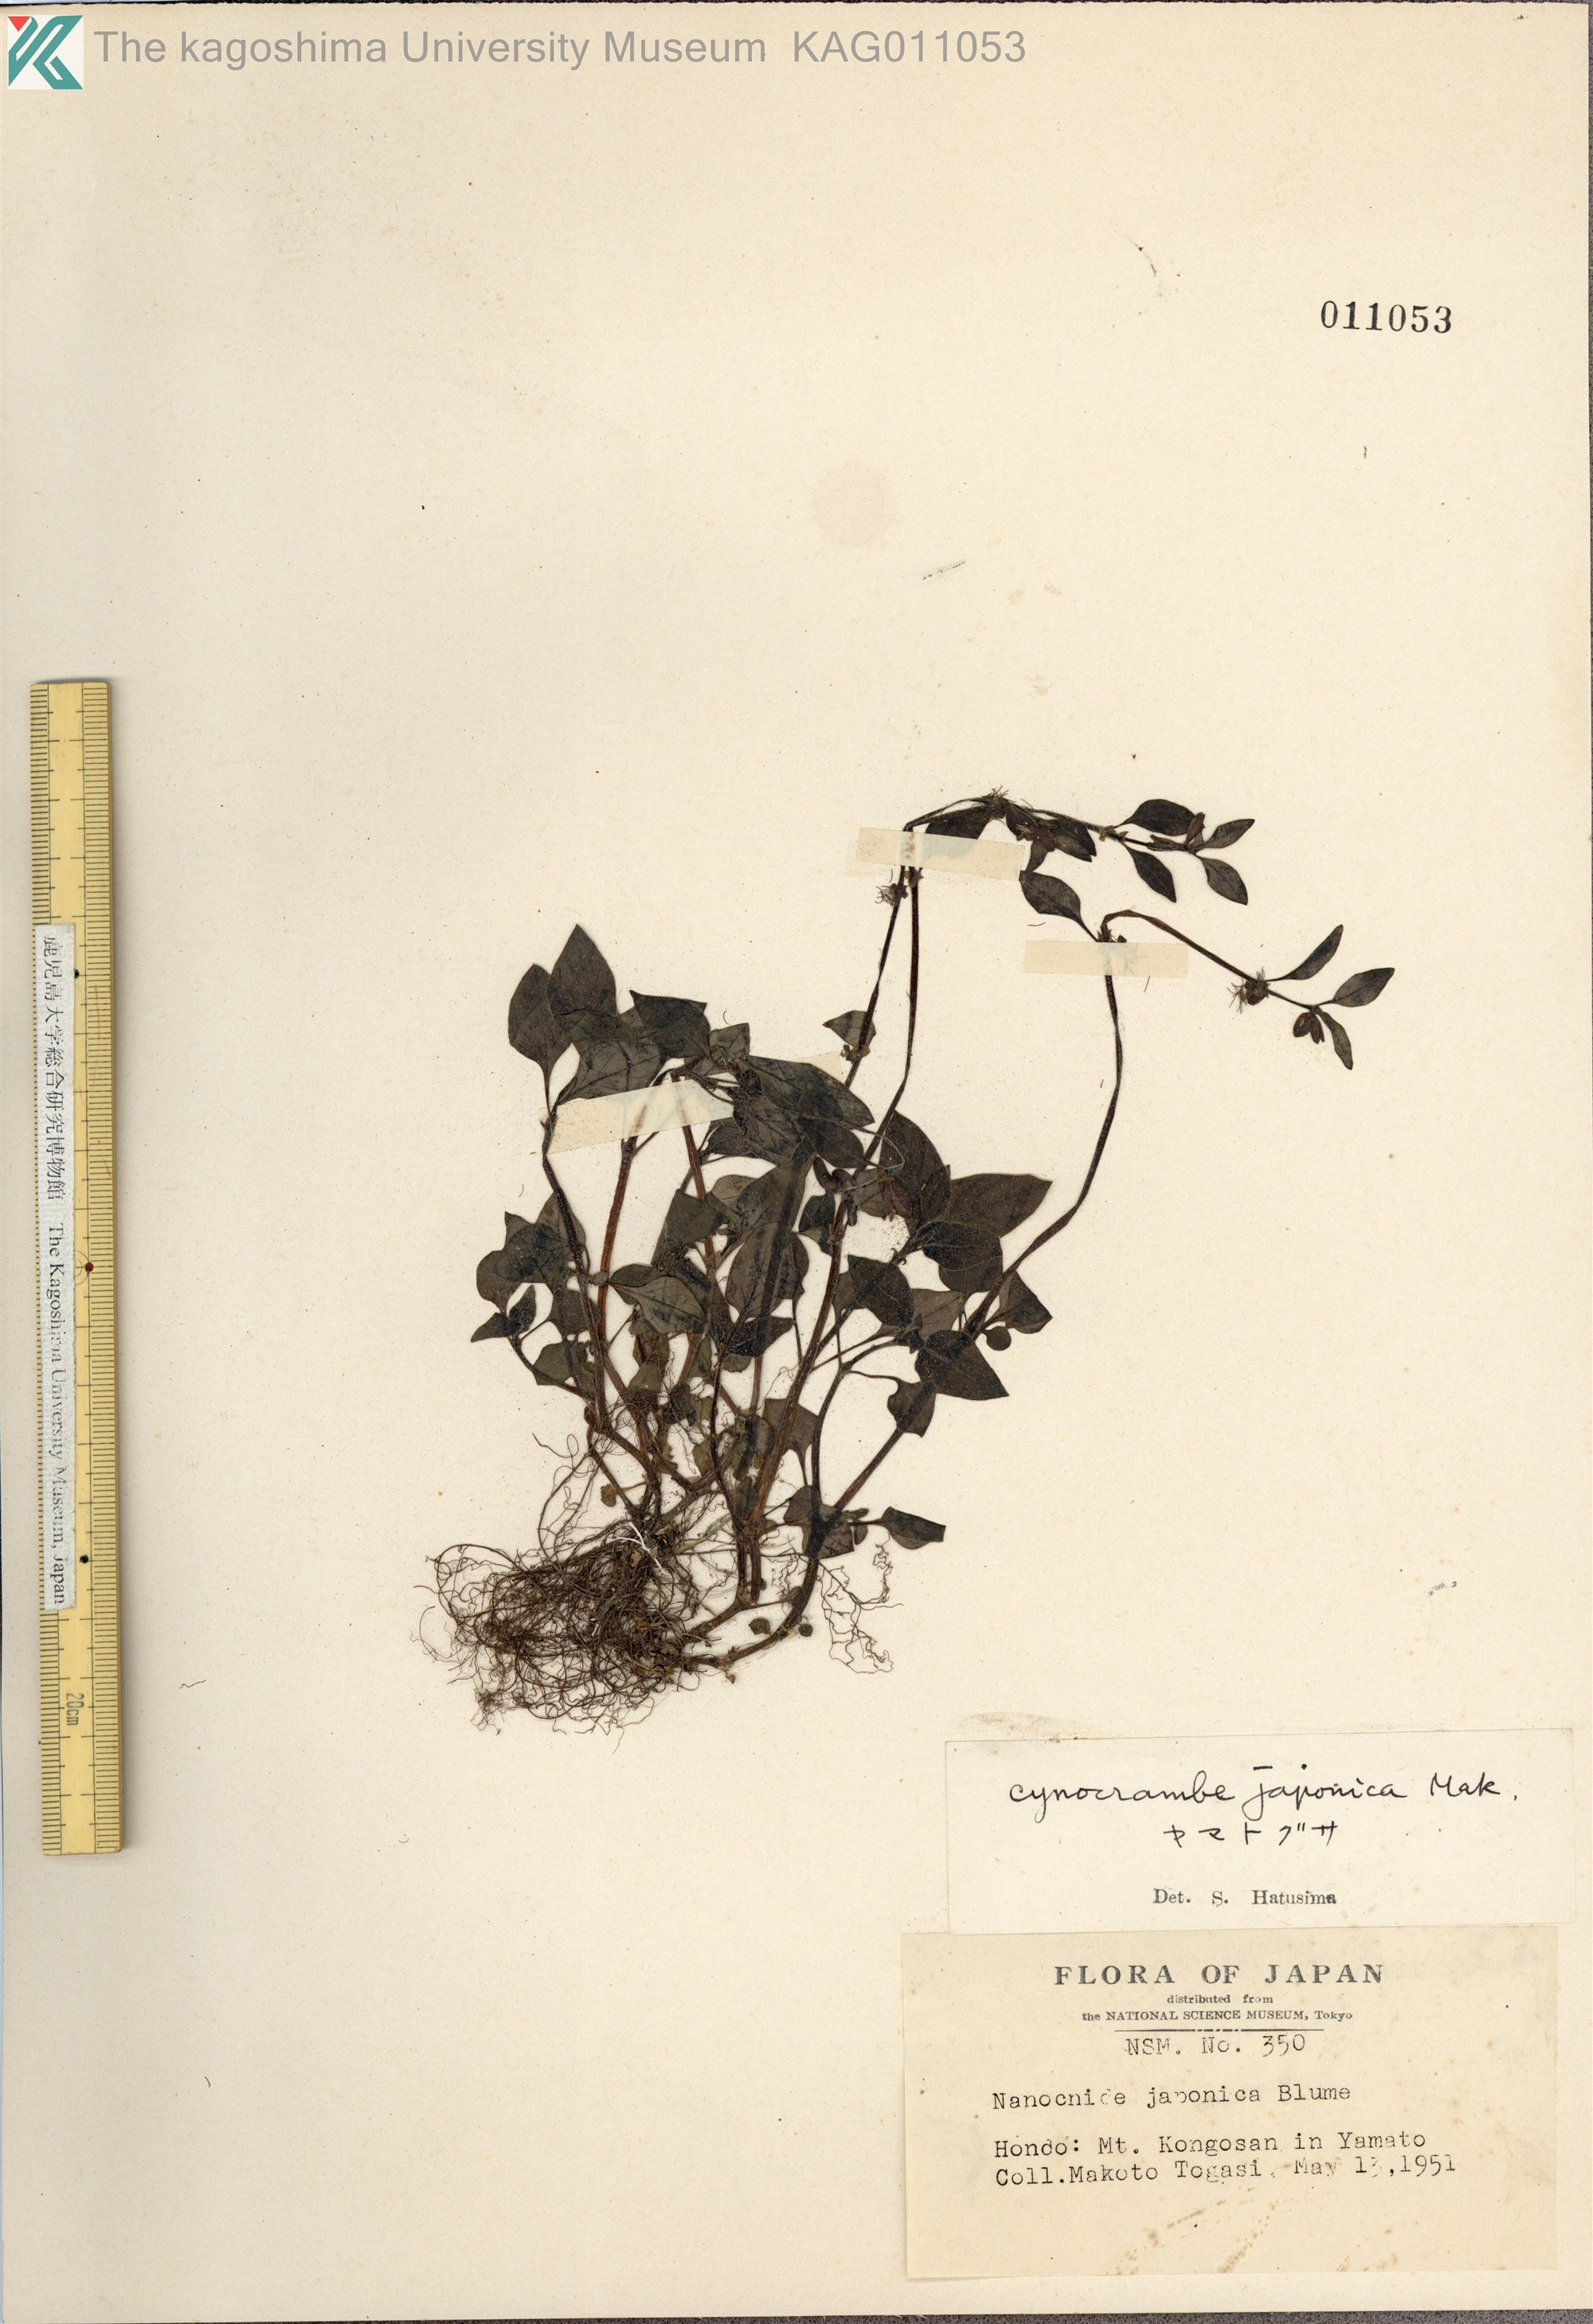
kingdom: Plantae
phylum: Tracheophyta
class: Magnoliopsida
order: Gentianales
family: Rubiaceae
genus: Theligonum
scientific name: Theligonum japonicum
